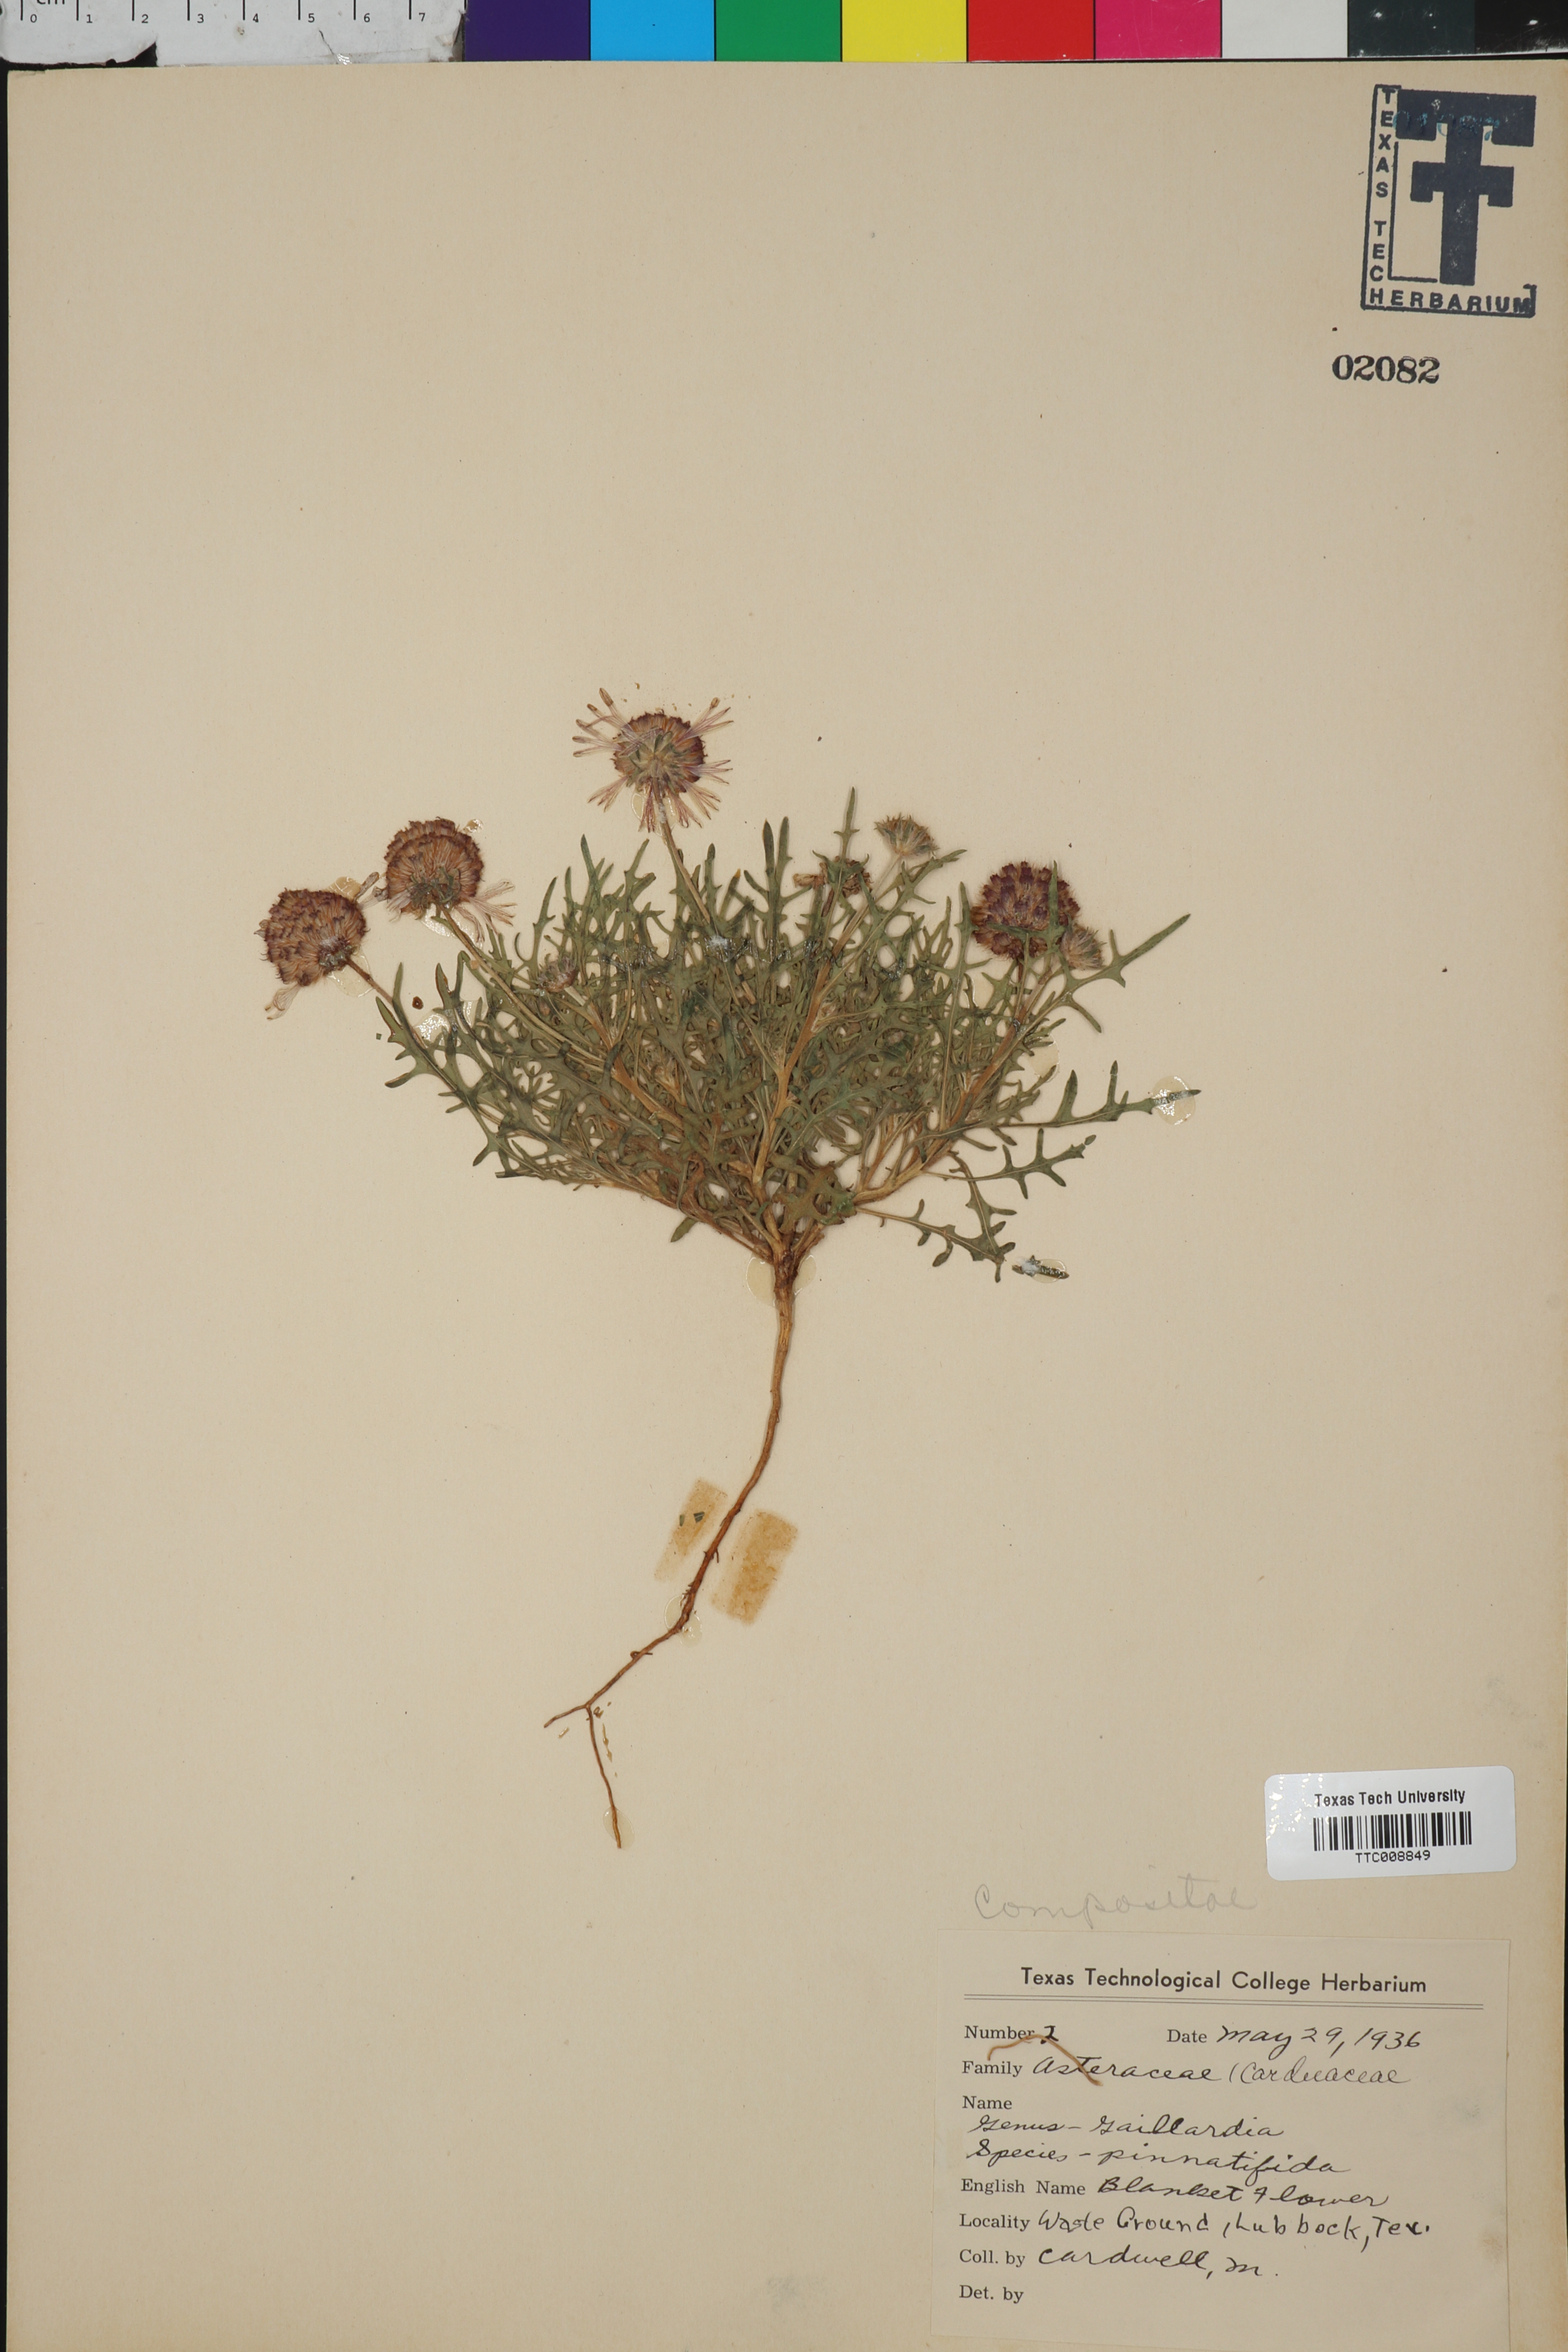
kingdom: Plantae
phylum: Tracheophyta
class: Magnoliopsida
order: Asterales
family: Asteraceae
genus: Gaillardia
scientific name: Gaillardia pinnatifida
